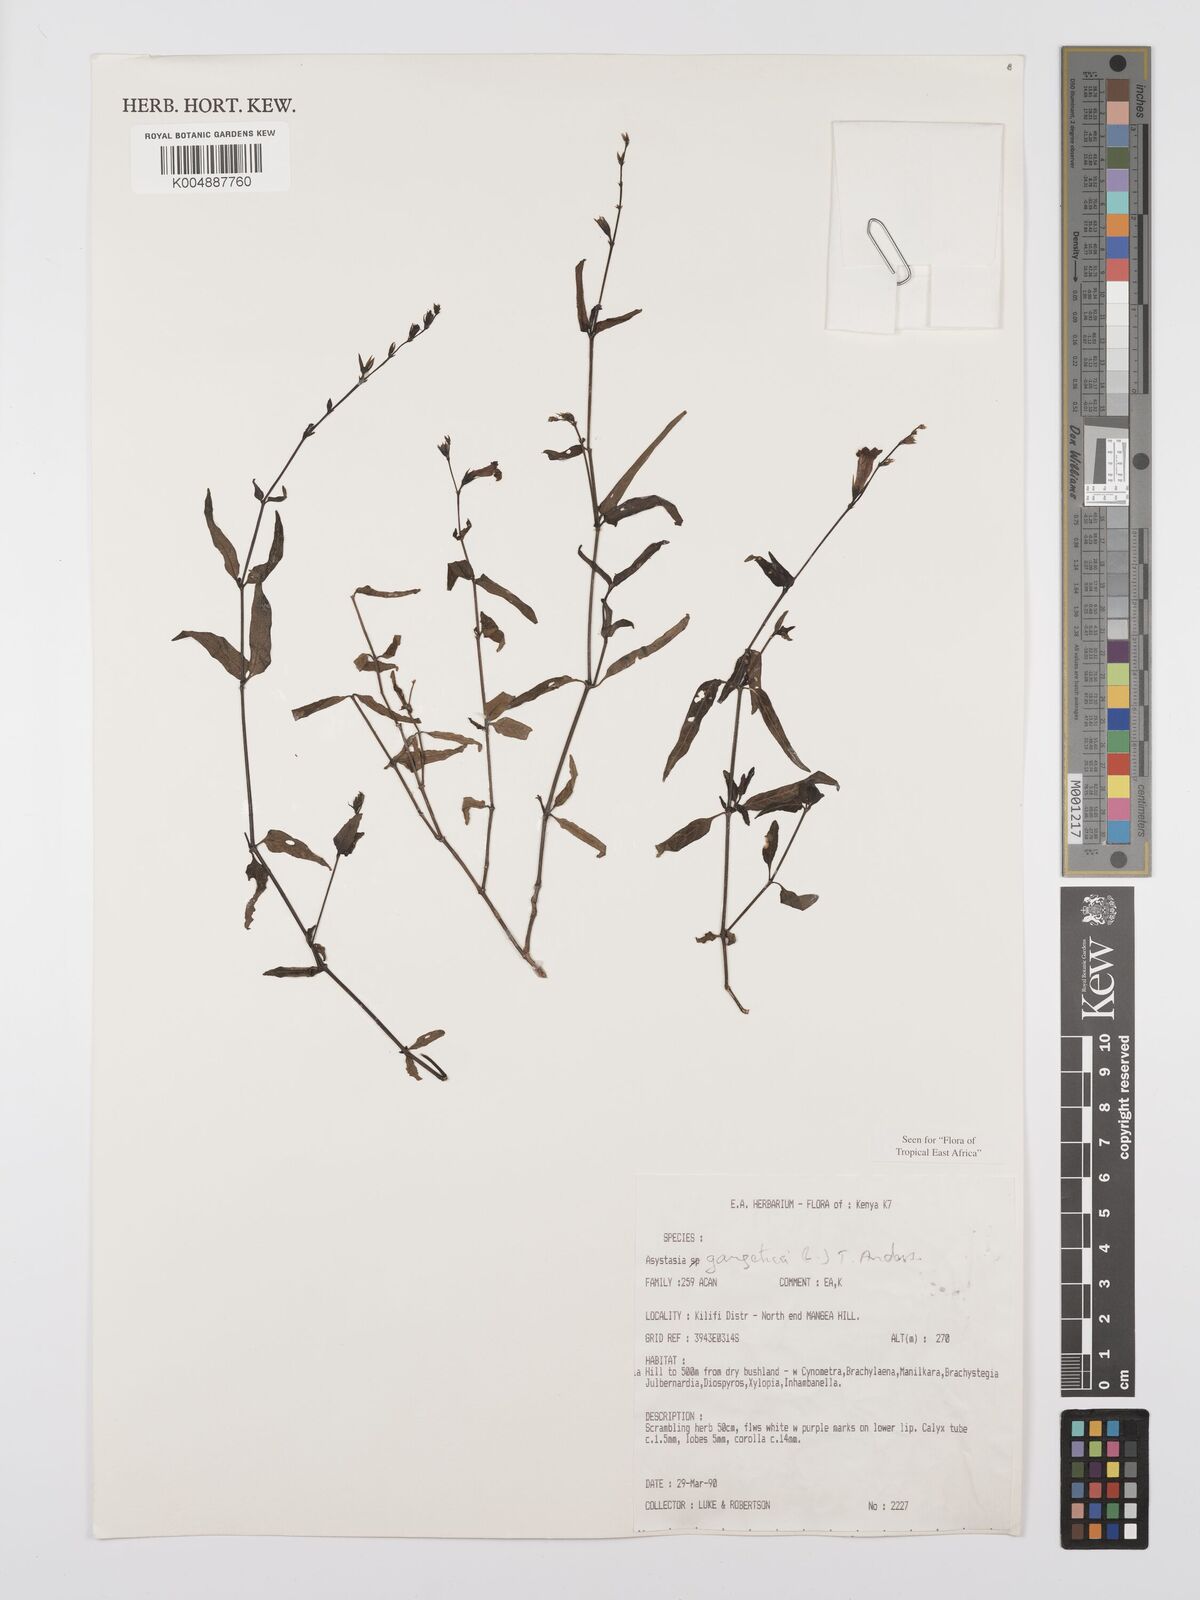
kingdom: Plantae
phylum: Tracheophyta
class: Magnoliopsida
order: Lamiales
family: Acanthaceae
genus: Asystasia
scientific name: Asystasia gangetica
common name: Chinese violet
